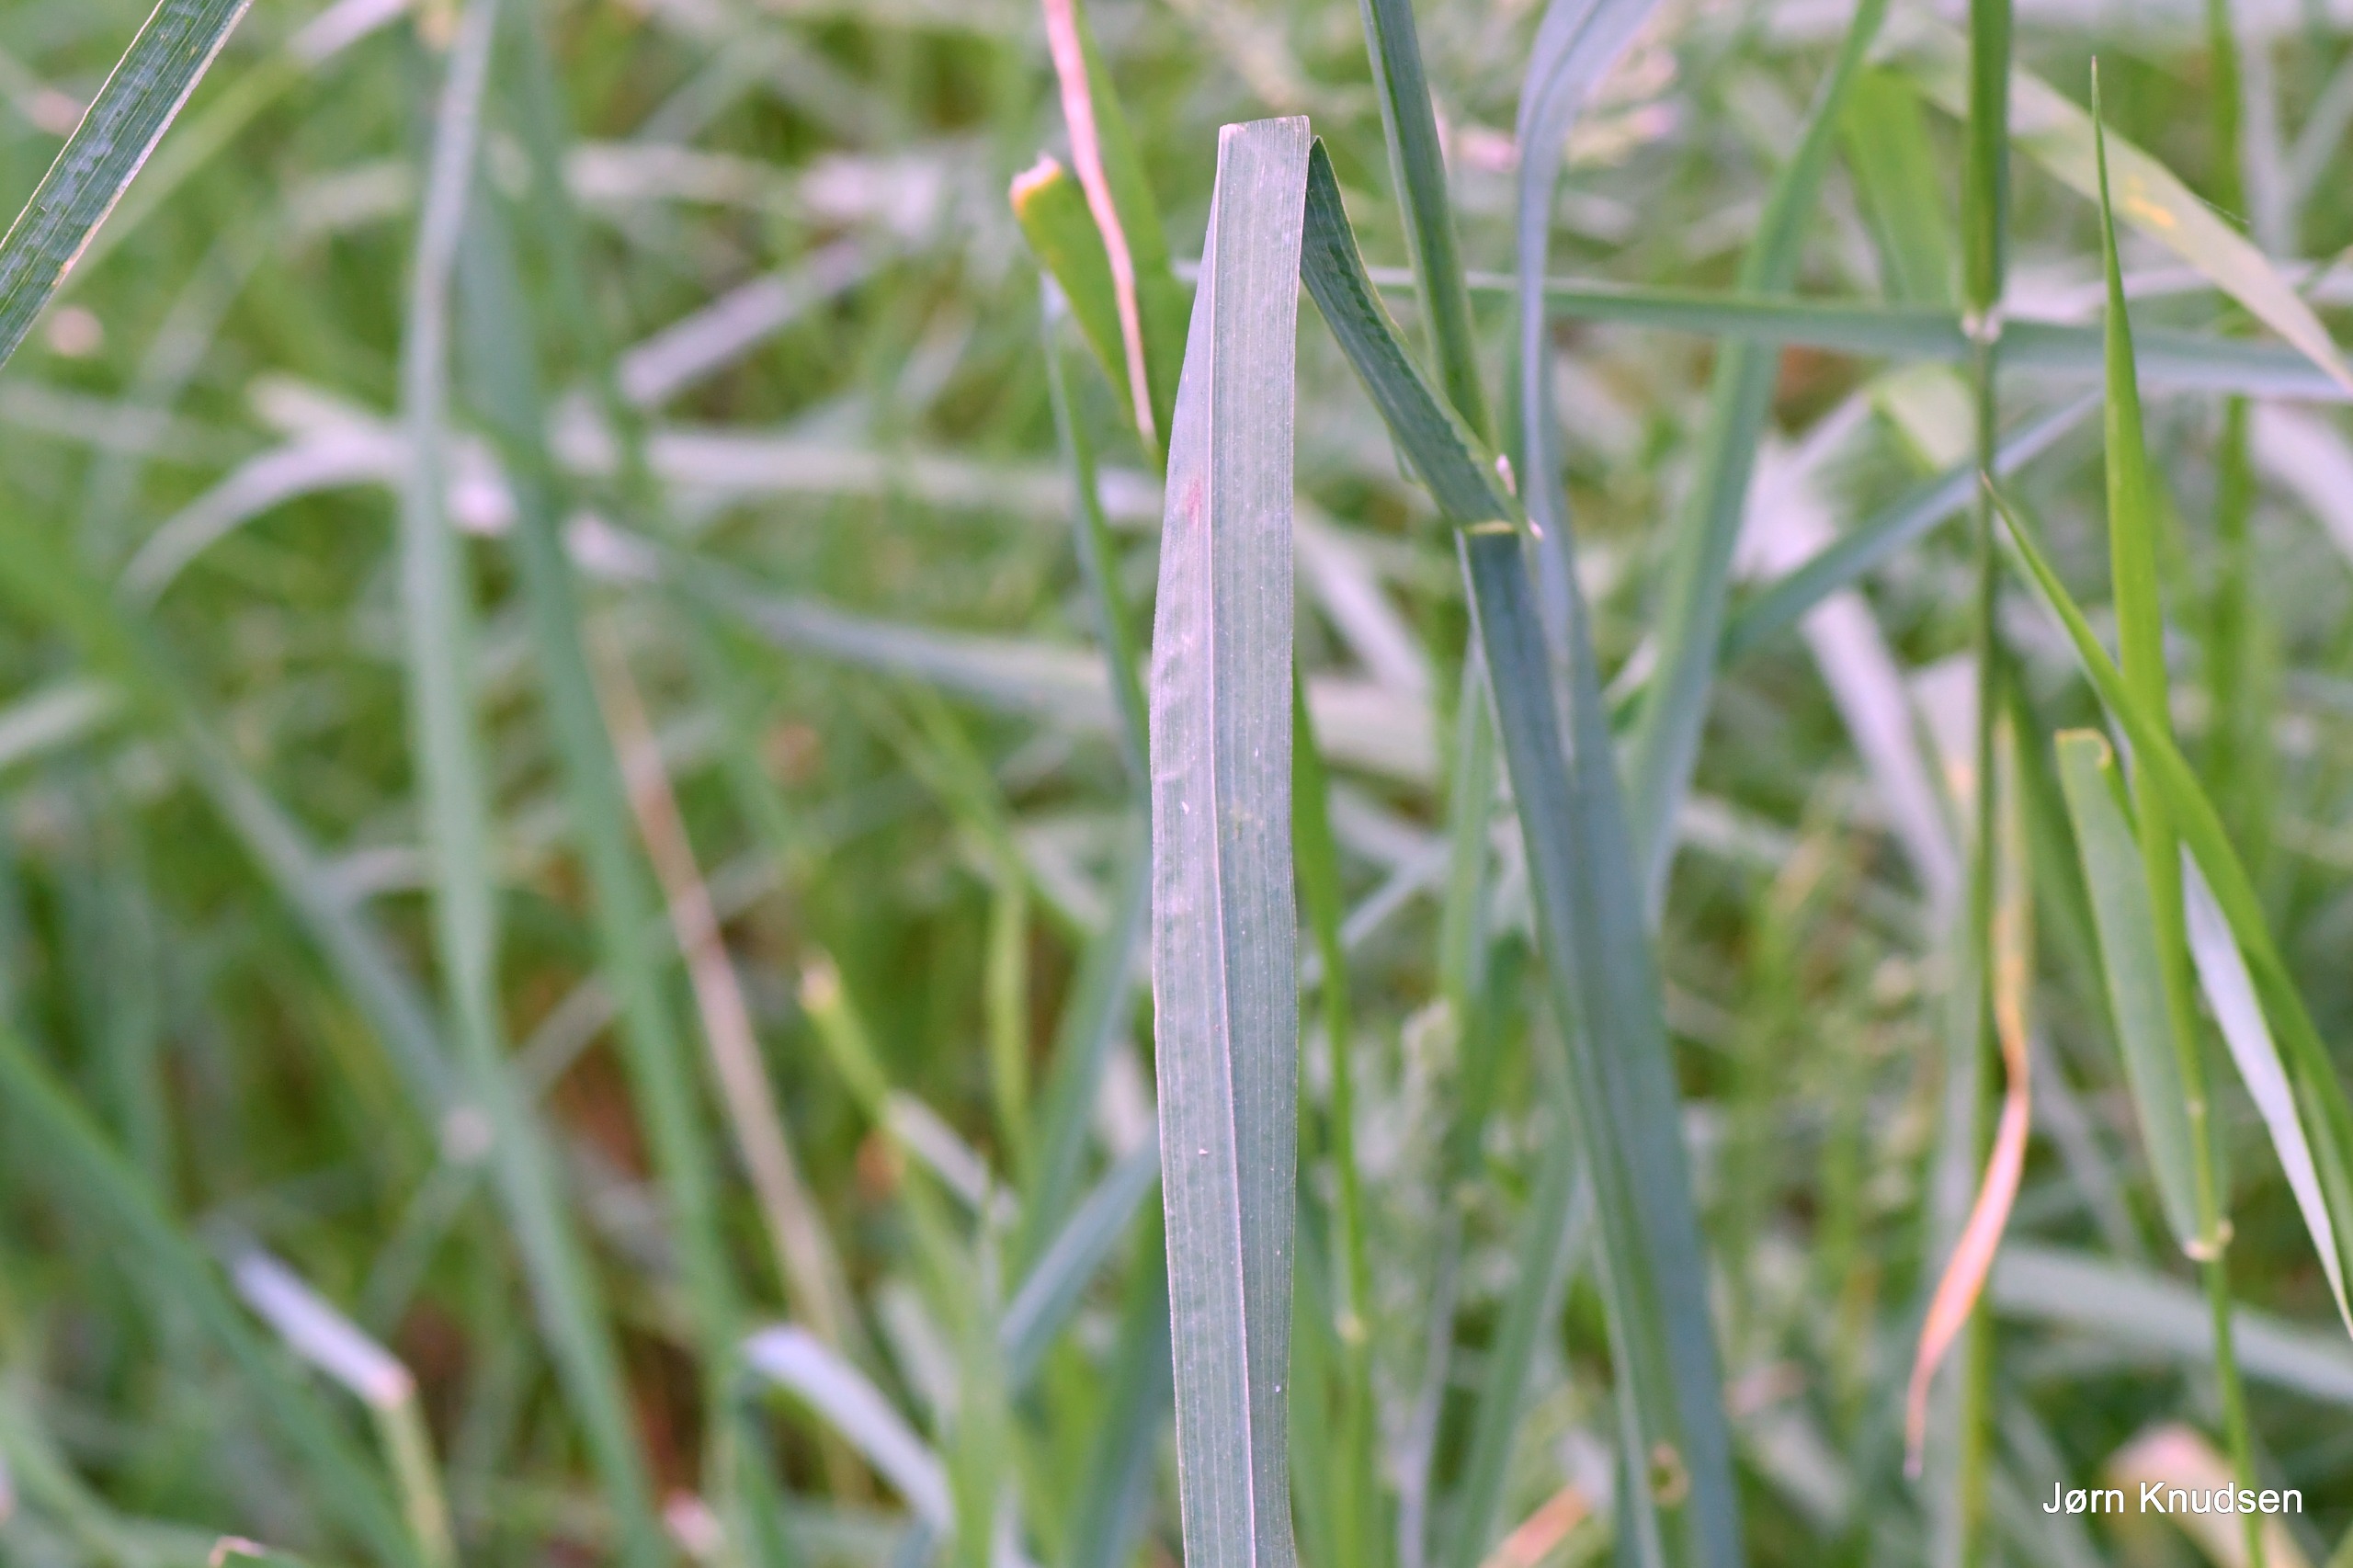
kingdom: Plantae
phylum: Tracheophyta
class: Liliopsida
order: Poales
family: Poaceae
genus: Dactylis
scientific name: Dactylis glomerata
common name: Almindelig hundegræs
